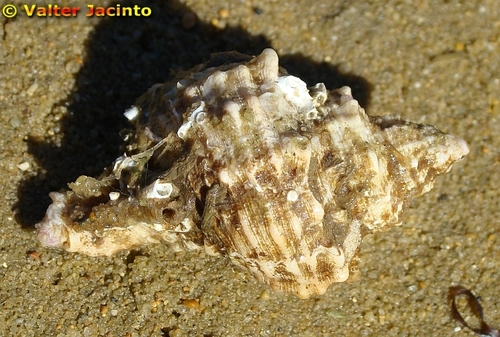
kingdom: Animalia
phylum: Mollusca
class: Gastropoda
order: Neogastropoda
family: Muricidae
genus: Hexaplex
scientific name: Hexaplex trunculus
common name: Banded dye-murex
